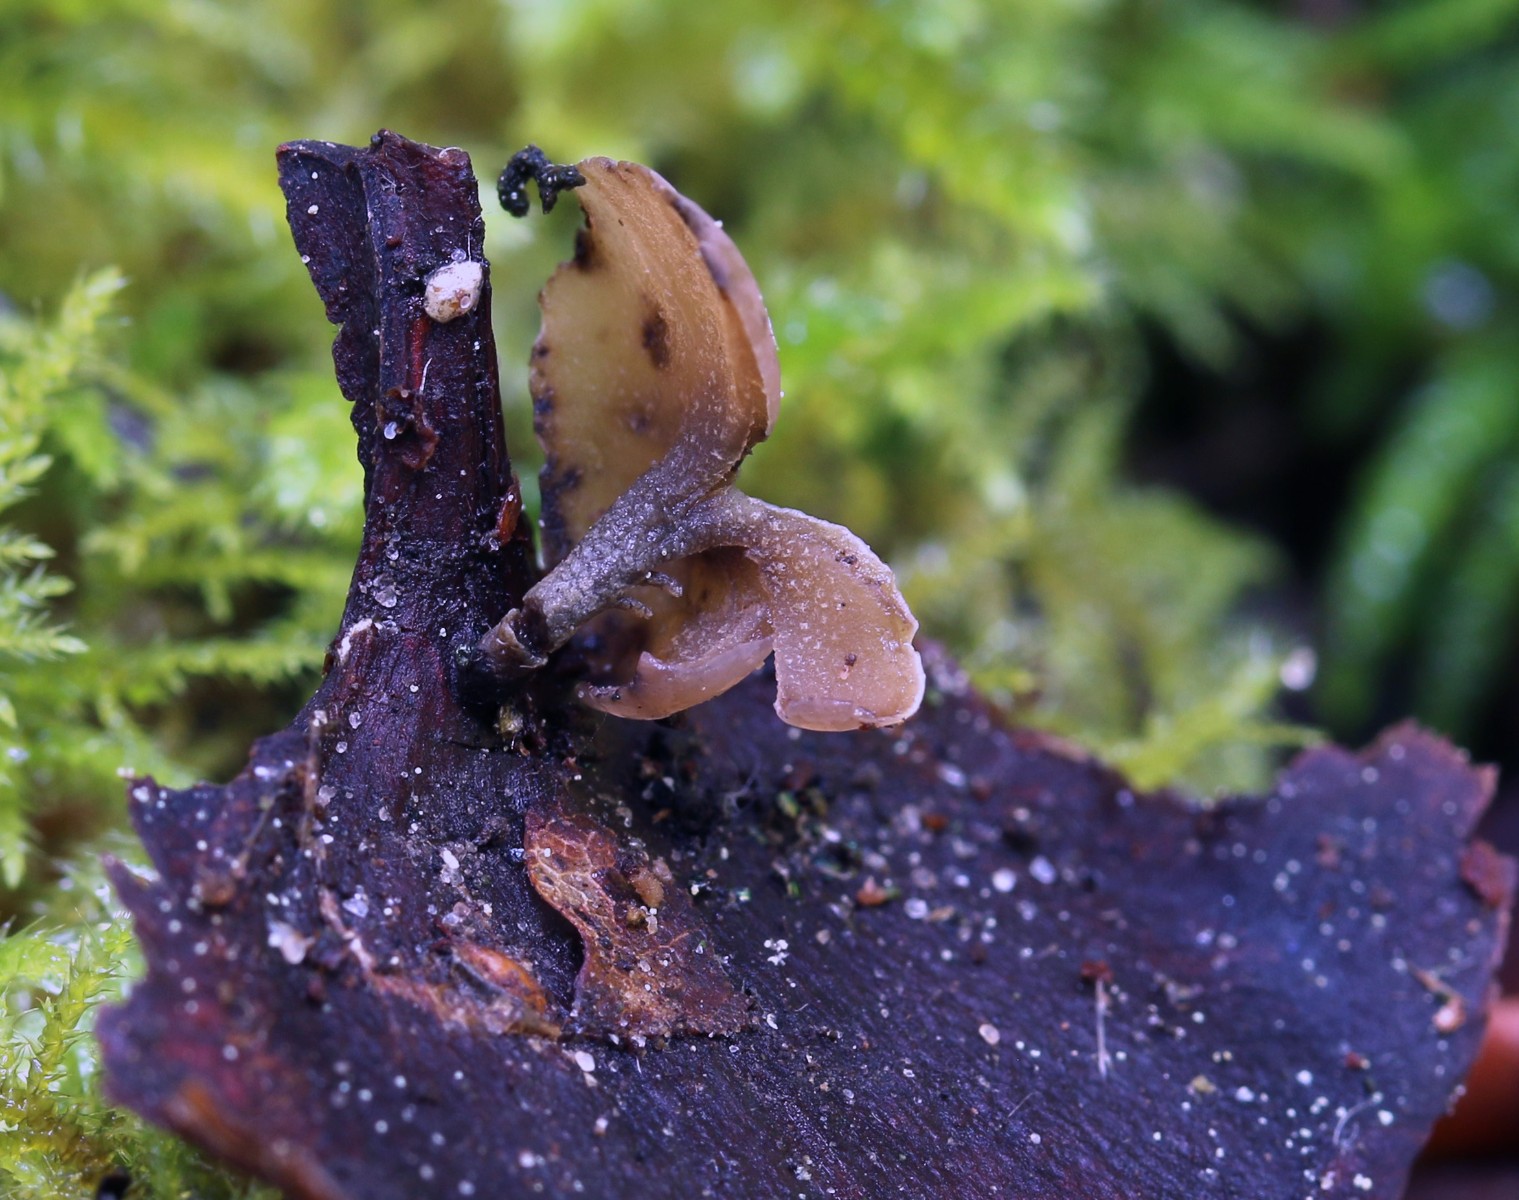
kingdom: Fungi
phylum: Ascomycota
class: Leotiomycetes
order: Helotiales
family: Sclerotiniaceae
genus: Ciboria
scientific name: Ciboria rufofusca
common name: kogleskæl-knoldskive
